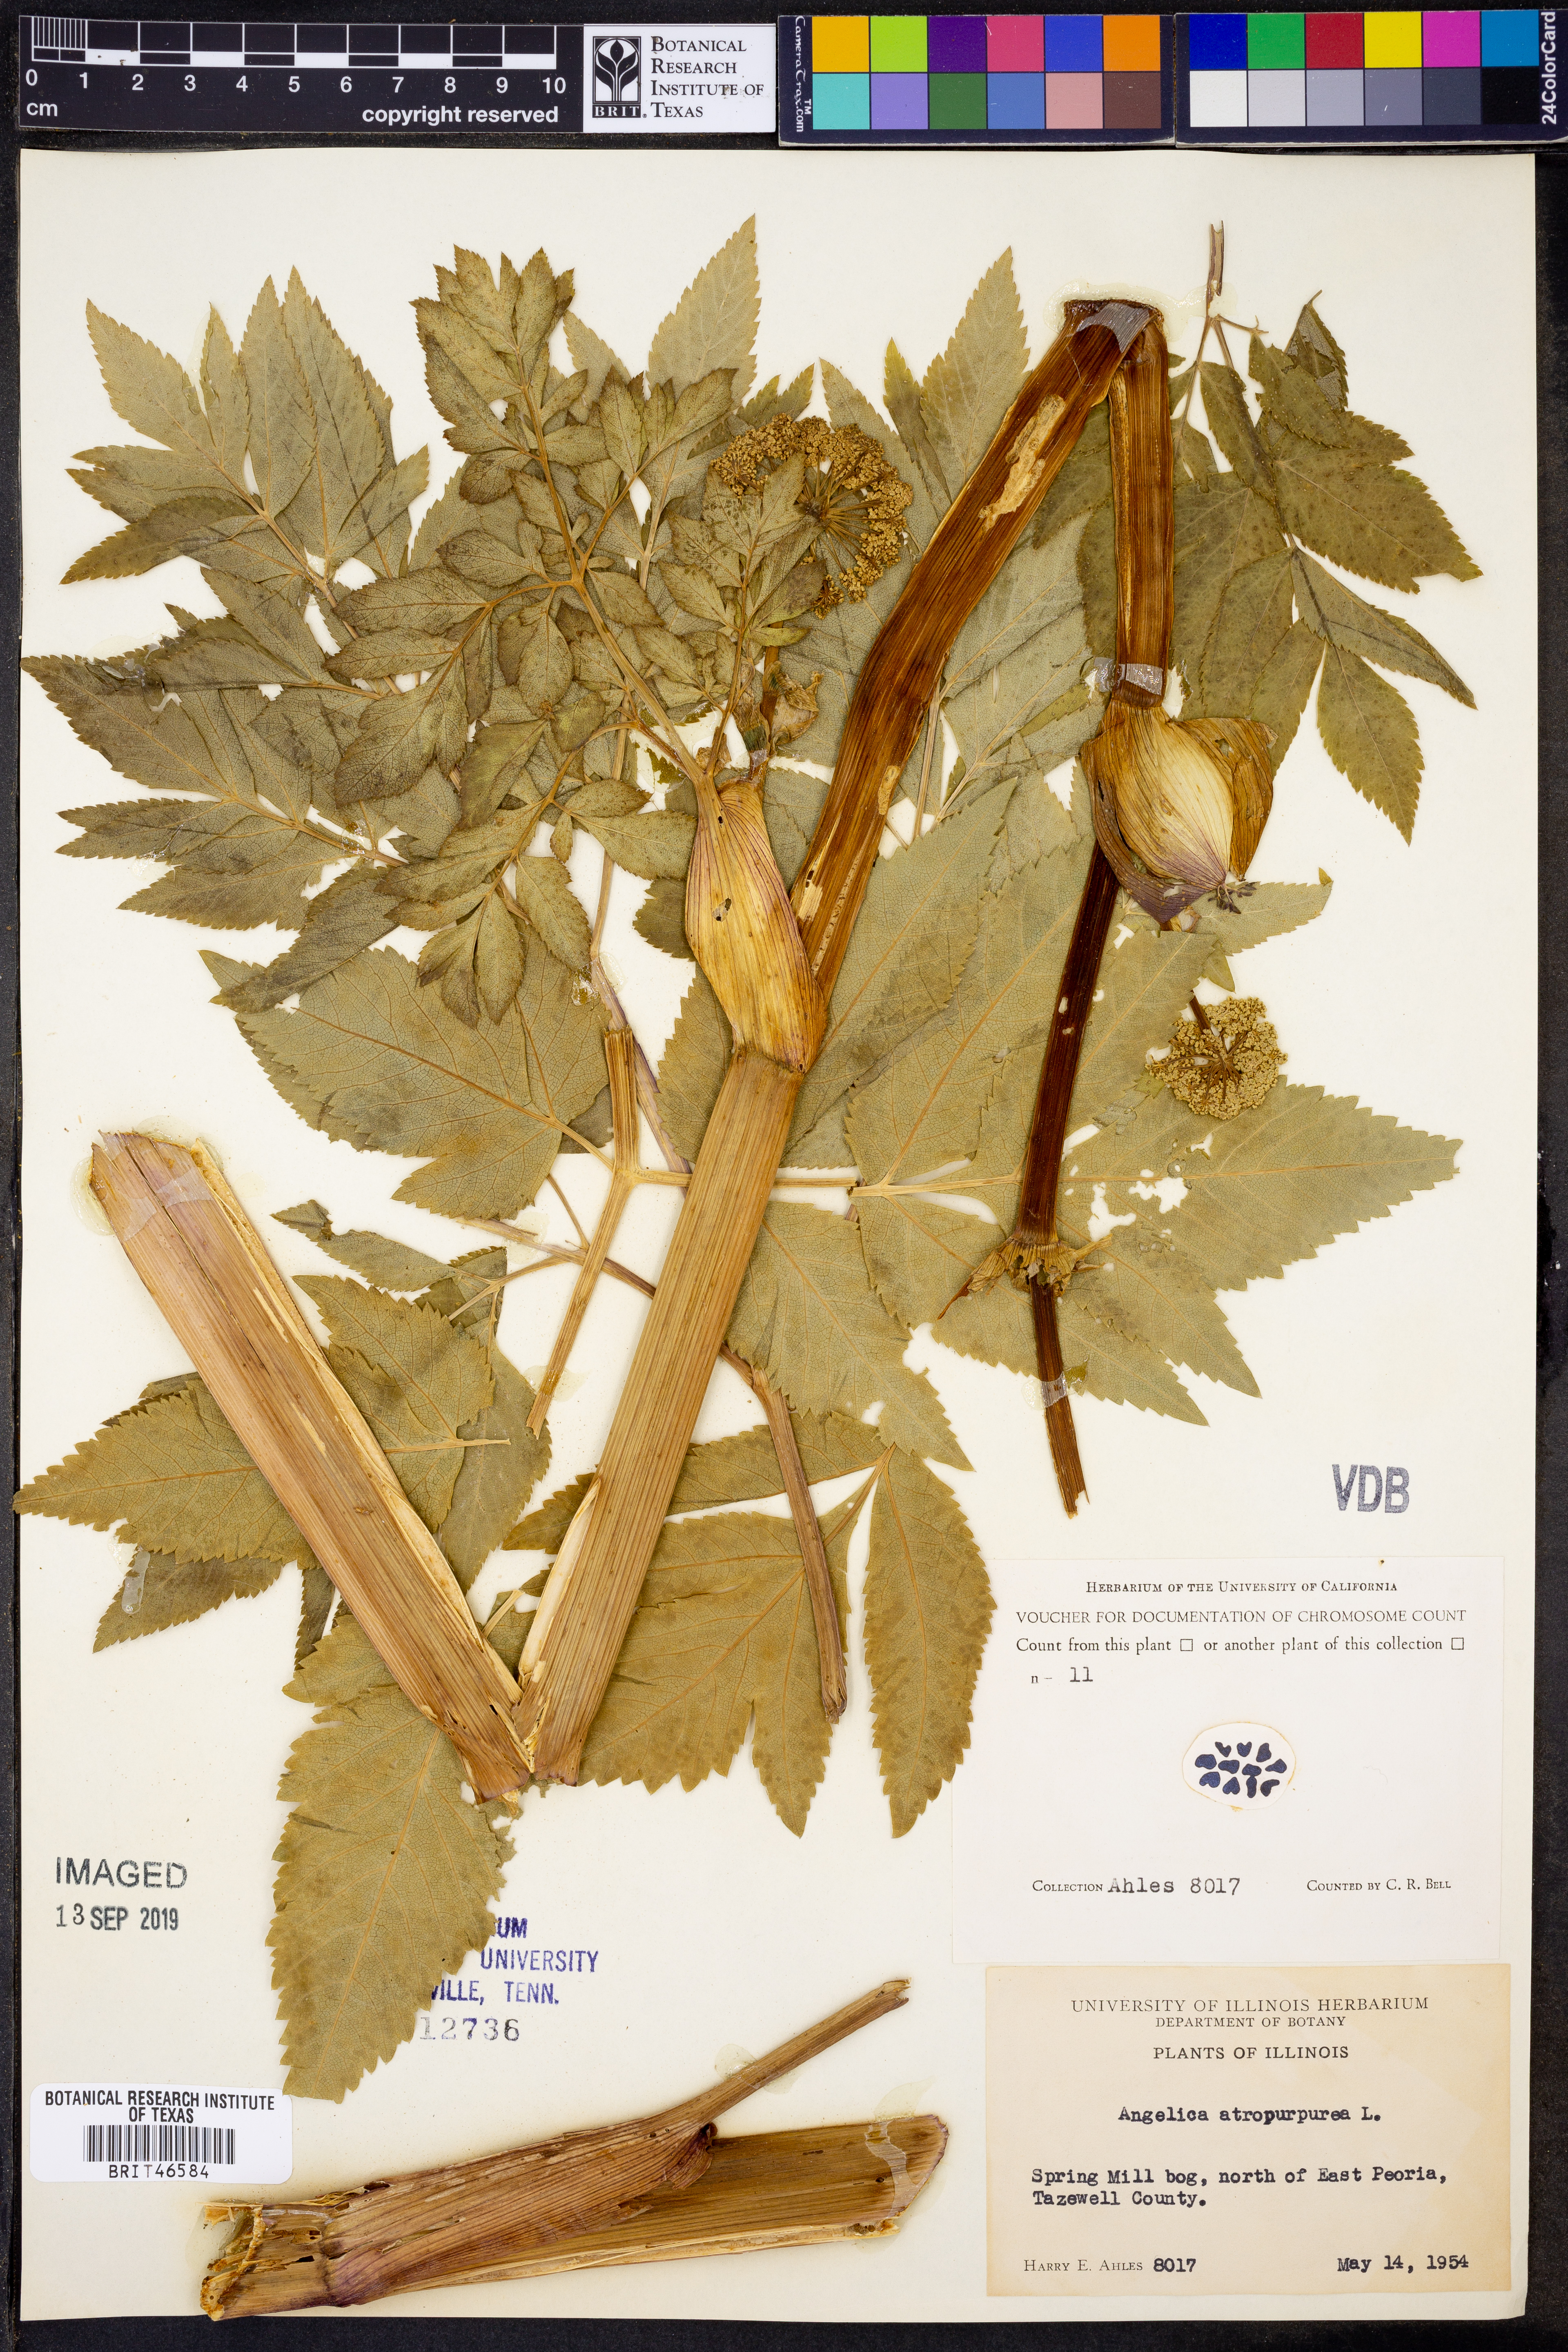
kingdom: Plantae
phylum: Tracheophyta
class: Magnoliopsida
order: Apiales
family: Apiaceae
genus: Angelica
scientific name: Angelica atropurpurea
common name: Great angelica
